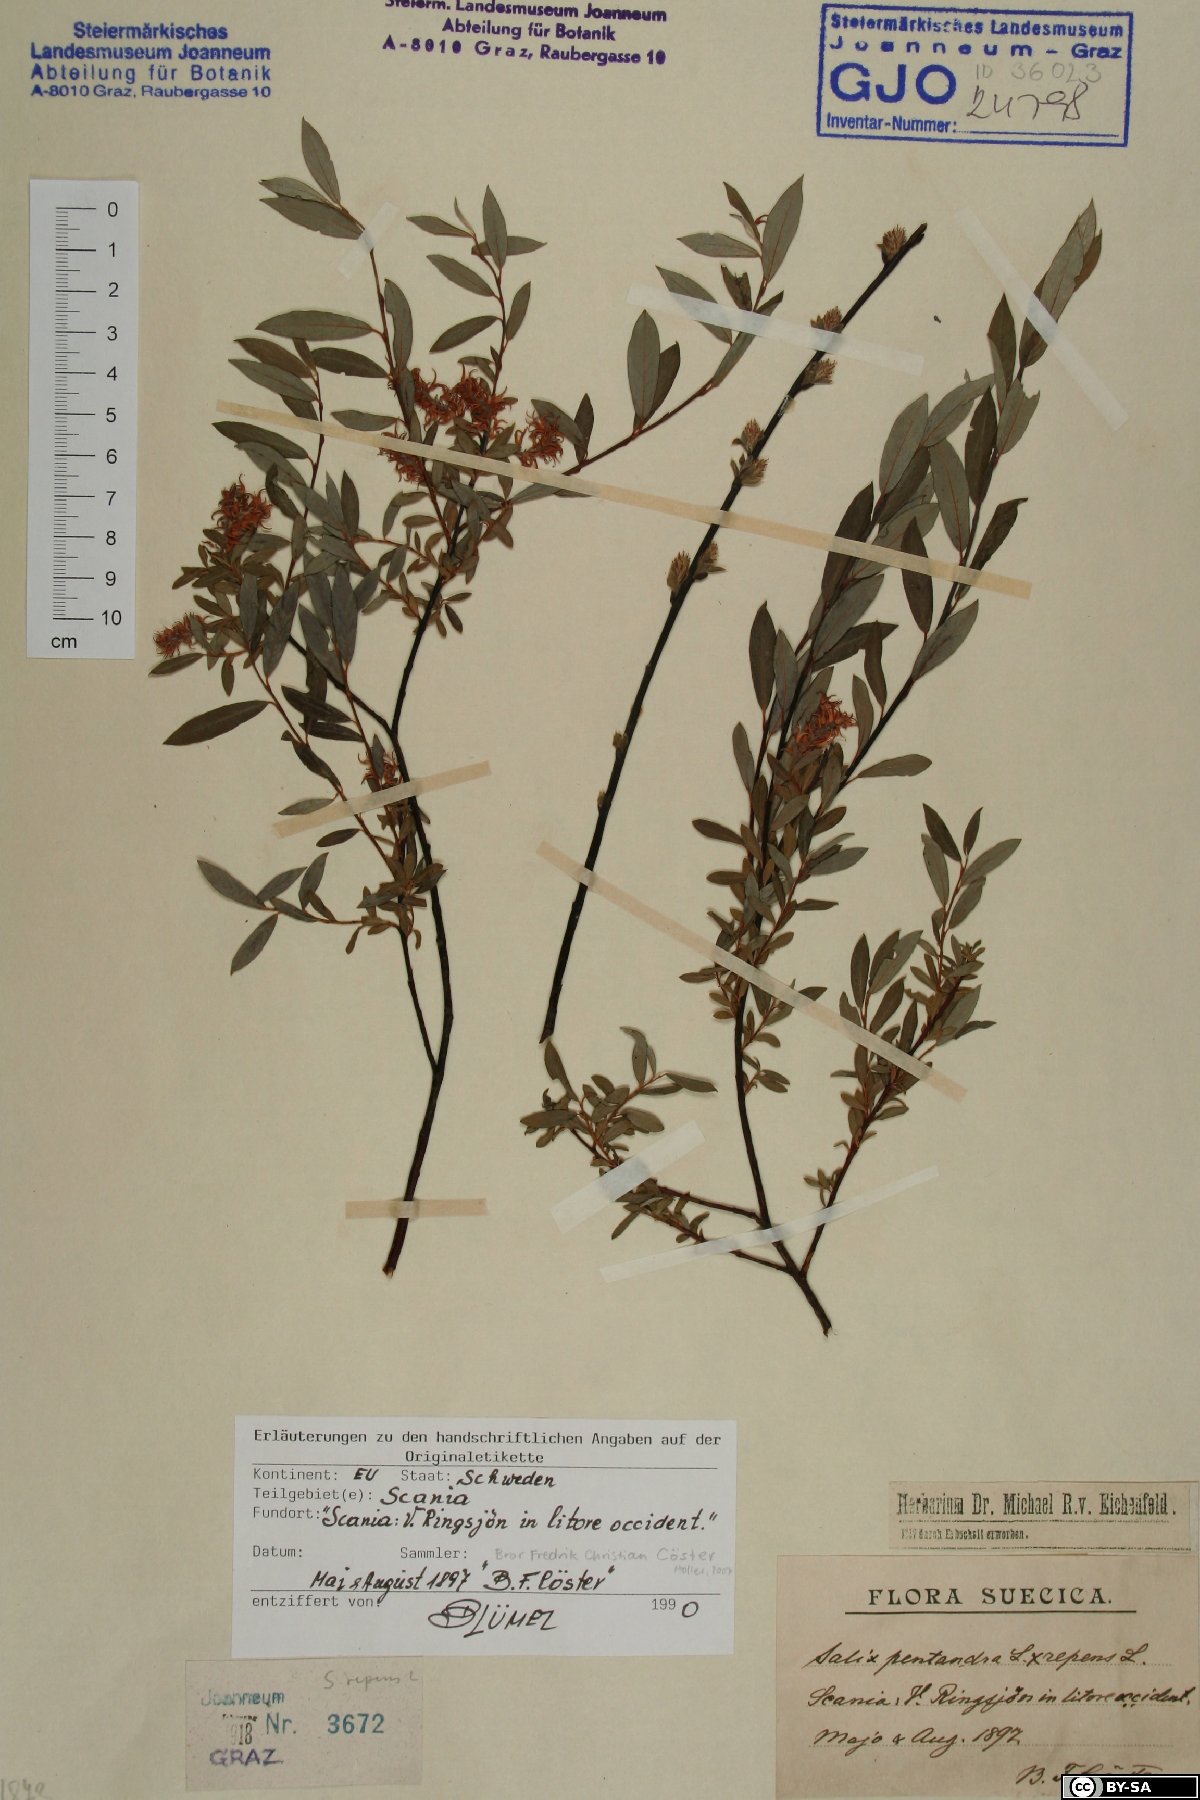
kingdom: Plantae
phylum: Tracheophyta
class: Magnoliopsida
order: Malpighiales
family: Salicaceae
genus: Salix
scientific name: Salix repens
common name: Creeping willow
